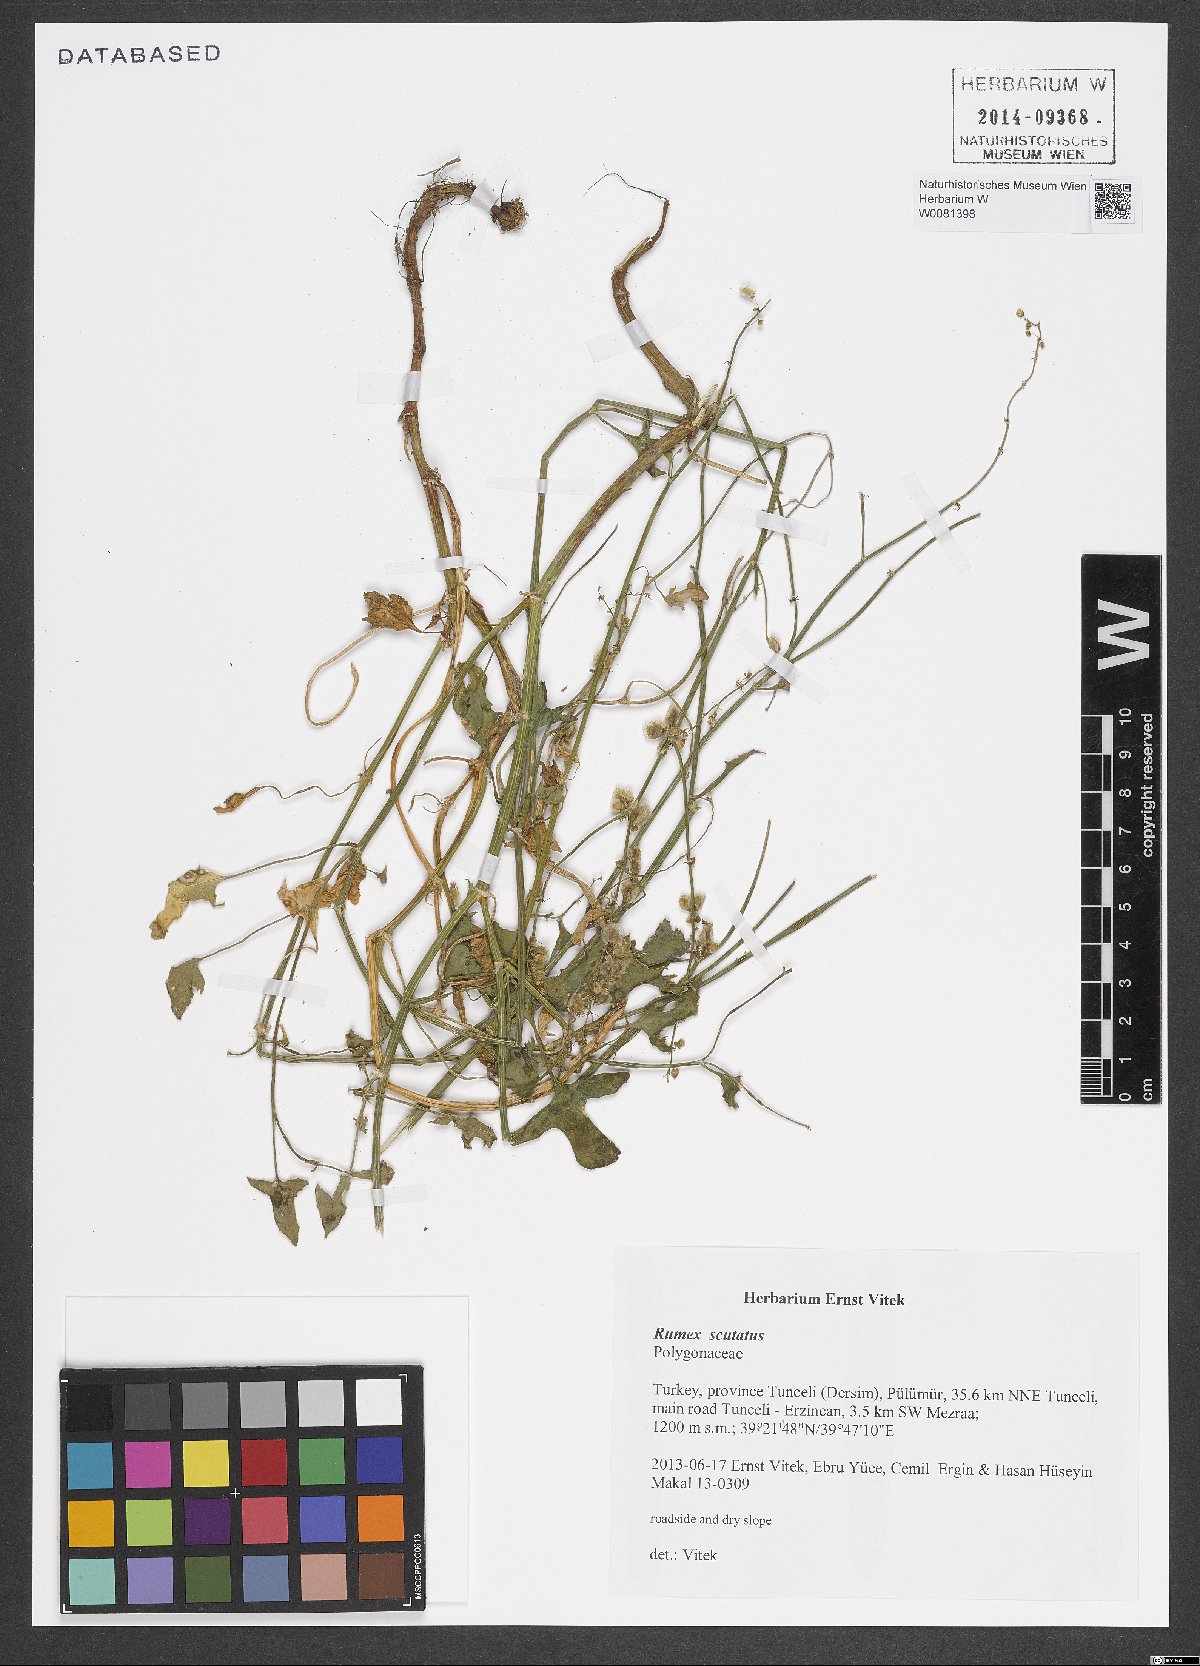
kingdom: Plantae
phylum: Tracheophyta
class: Magnoliopsida
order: Caryophyllales
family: Polygonaceae
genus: Rumex
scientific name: Rumex scutatus
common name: French sorrel
